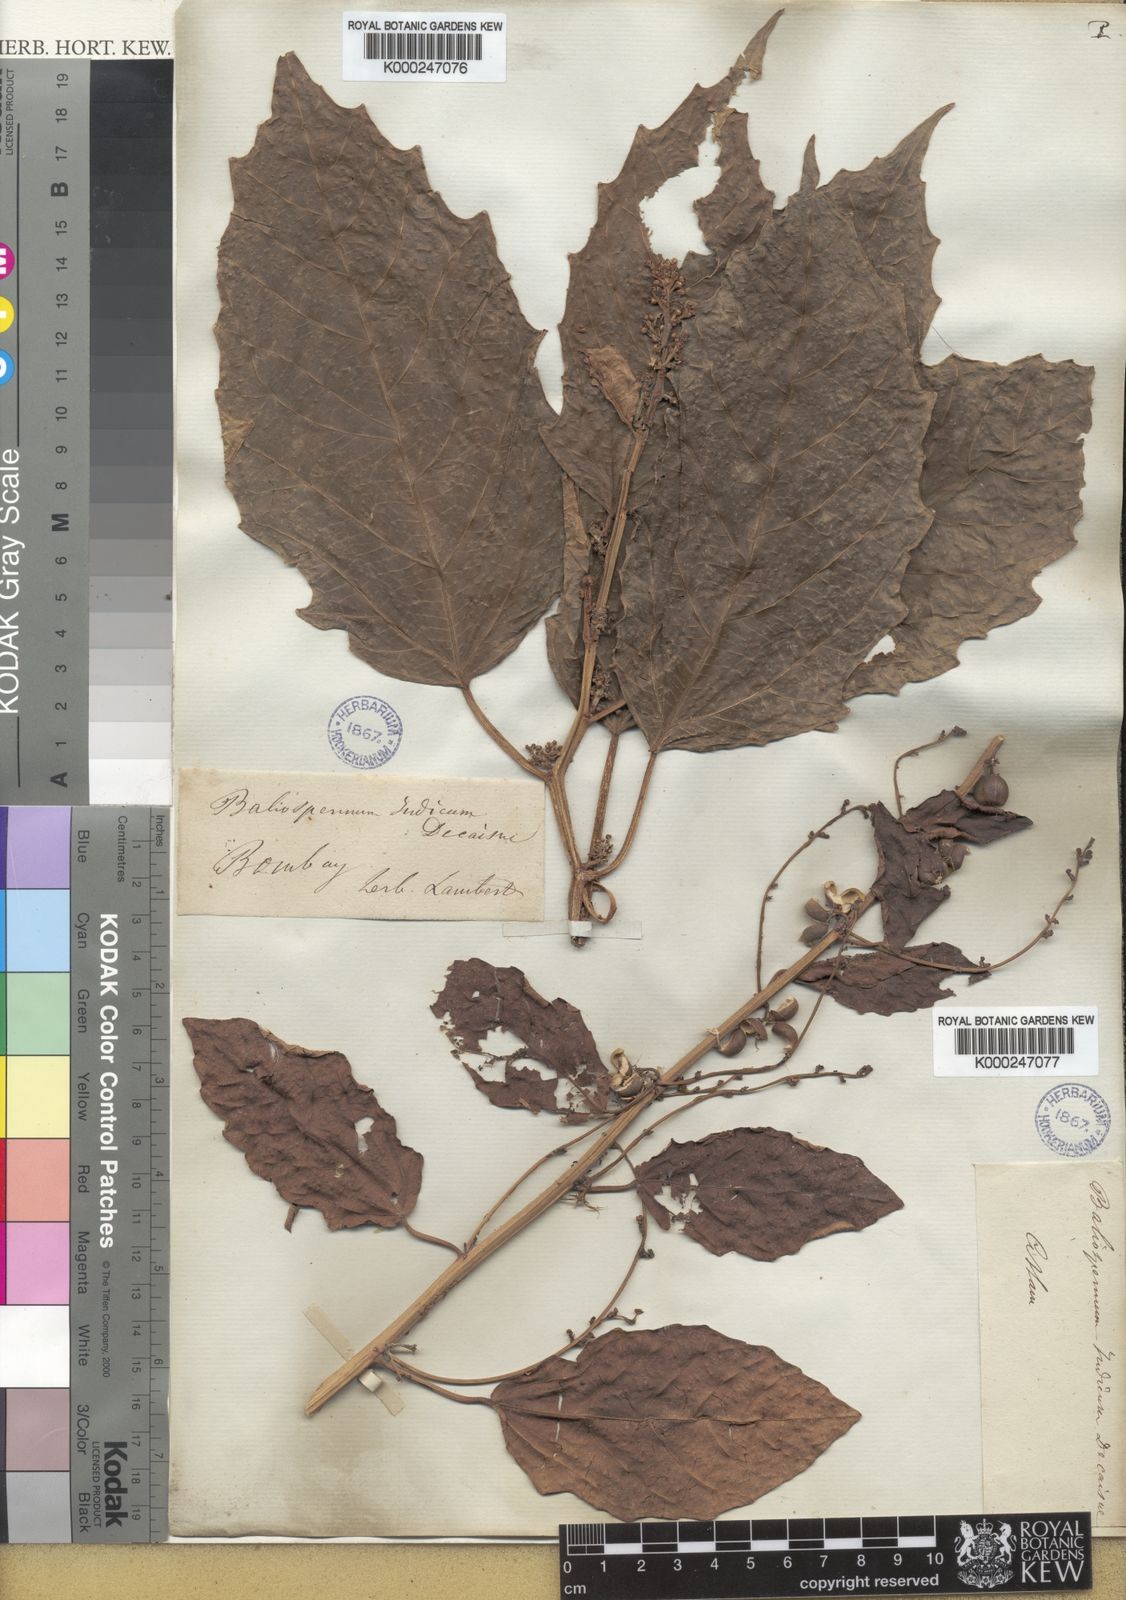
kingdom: Plantae
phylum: Tracheophyta
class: Magnoliopsida
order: Malpighiales
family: Euphorbiaceae
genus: Baliospermum
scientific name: Baliospermum
